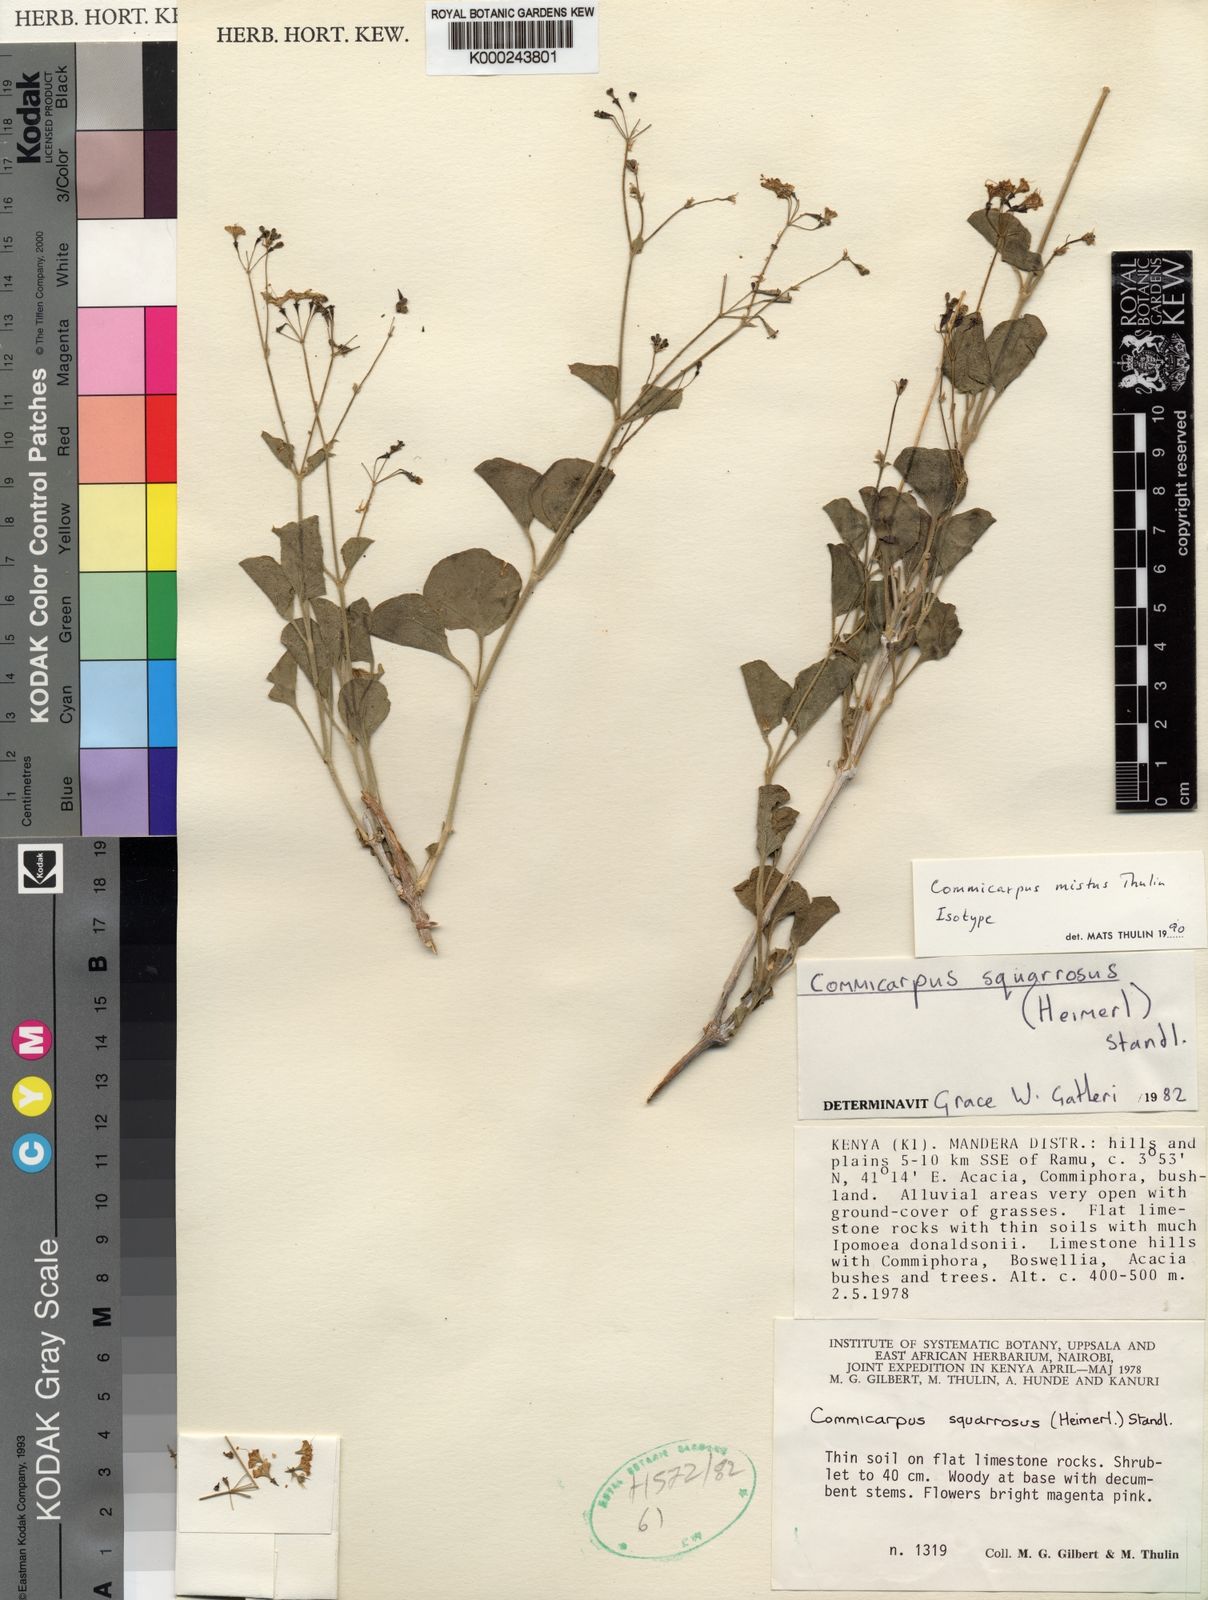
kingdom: Plantae
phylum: Tracheophyta
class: Magnoliopsida
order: Caryophyllales
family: Nyctaginaceae
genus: Commicarpus
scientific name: Commicarpus squarrosus
